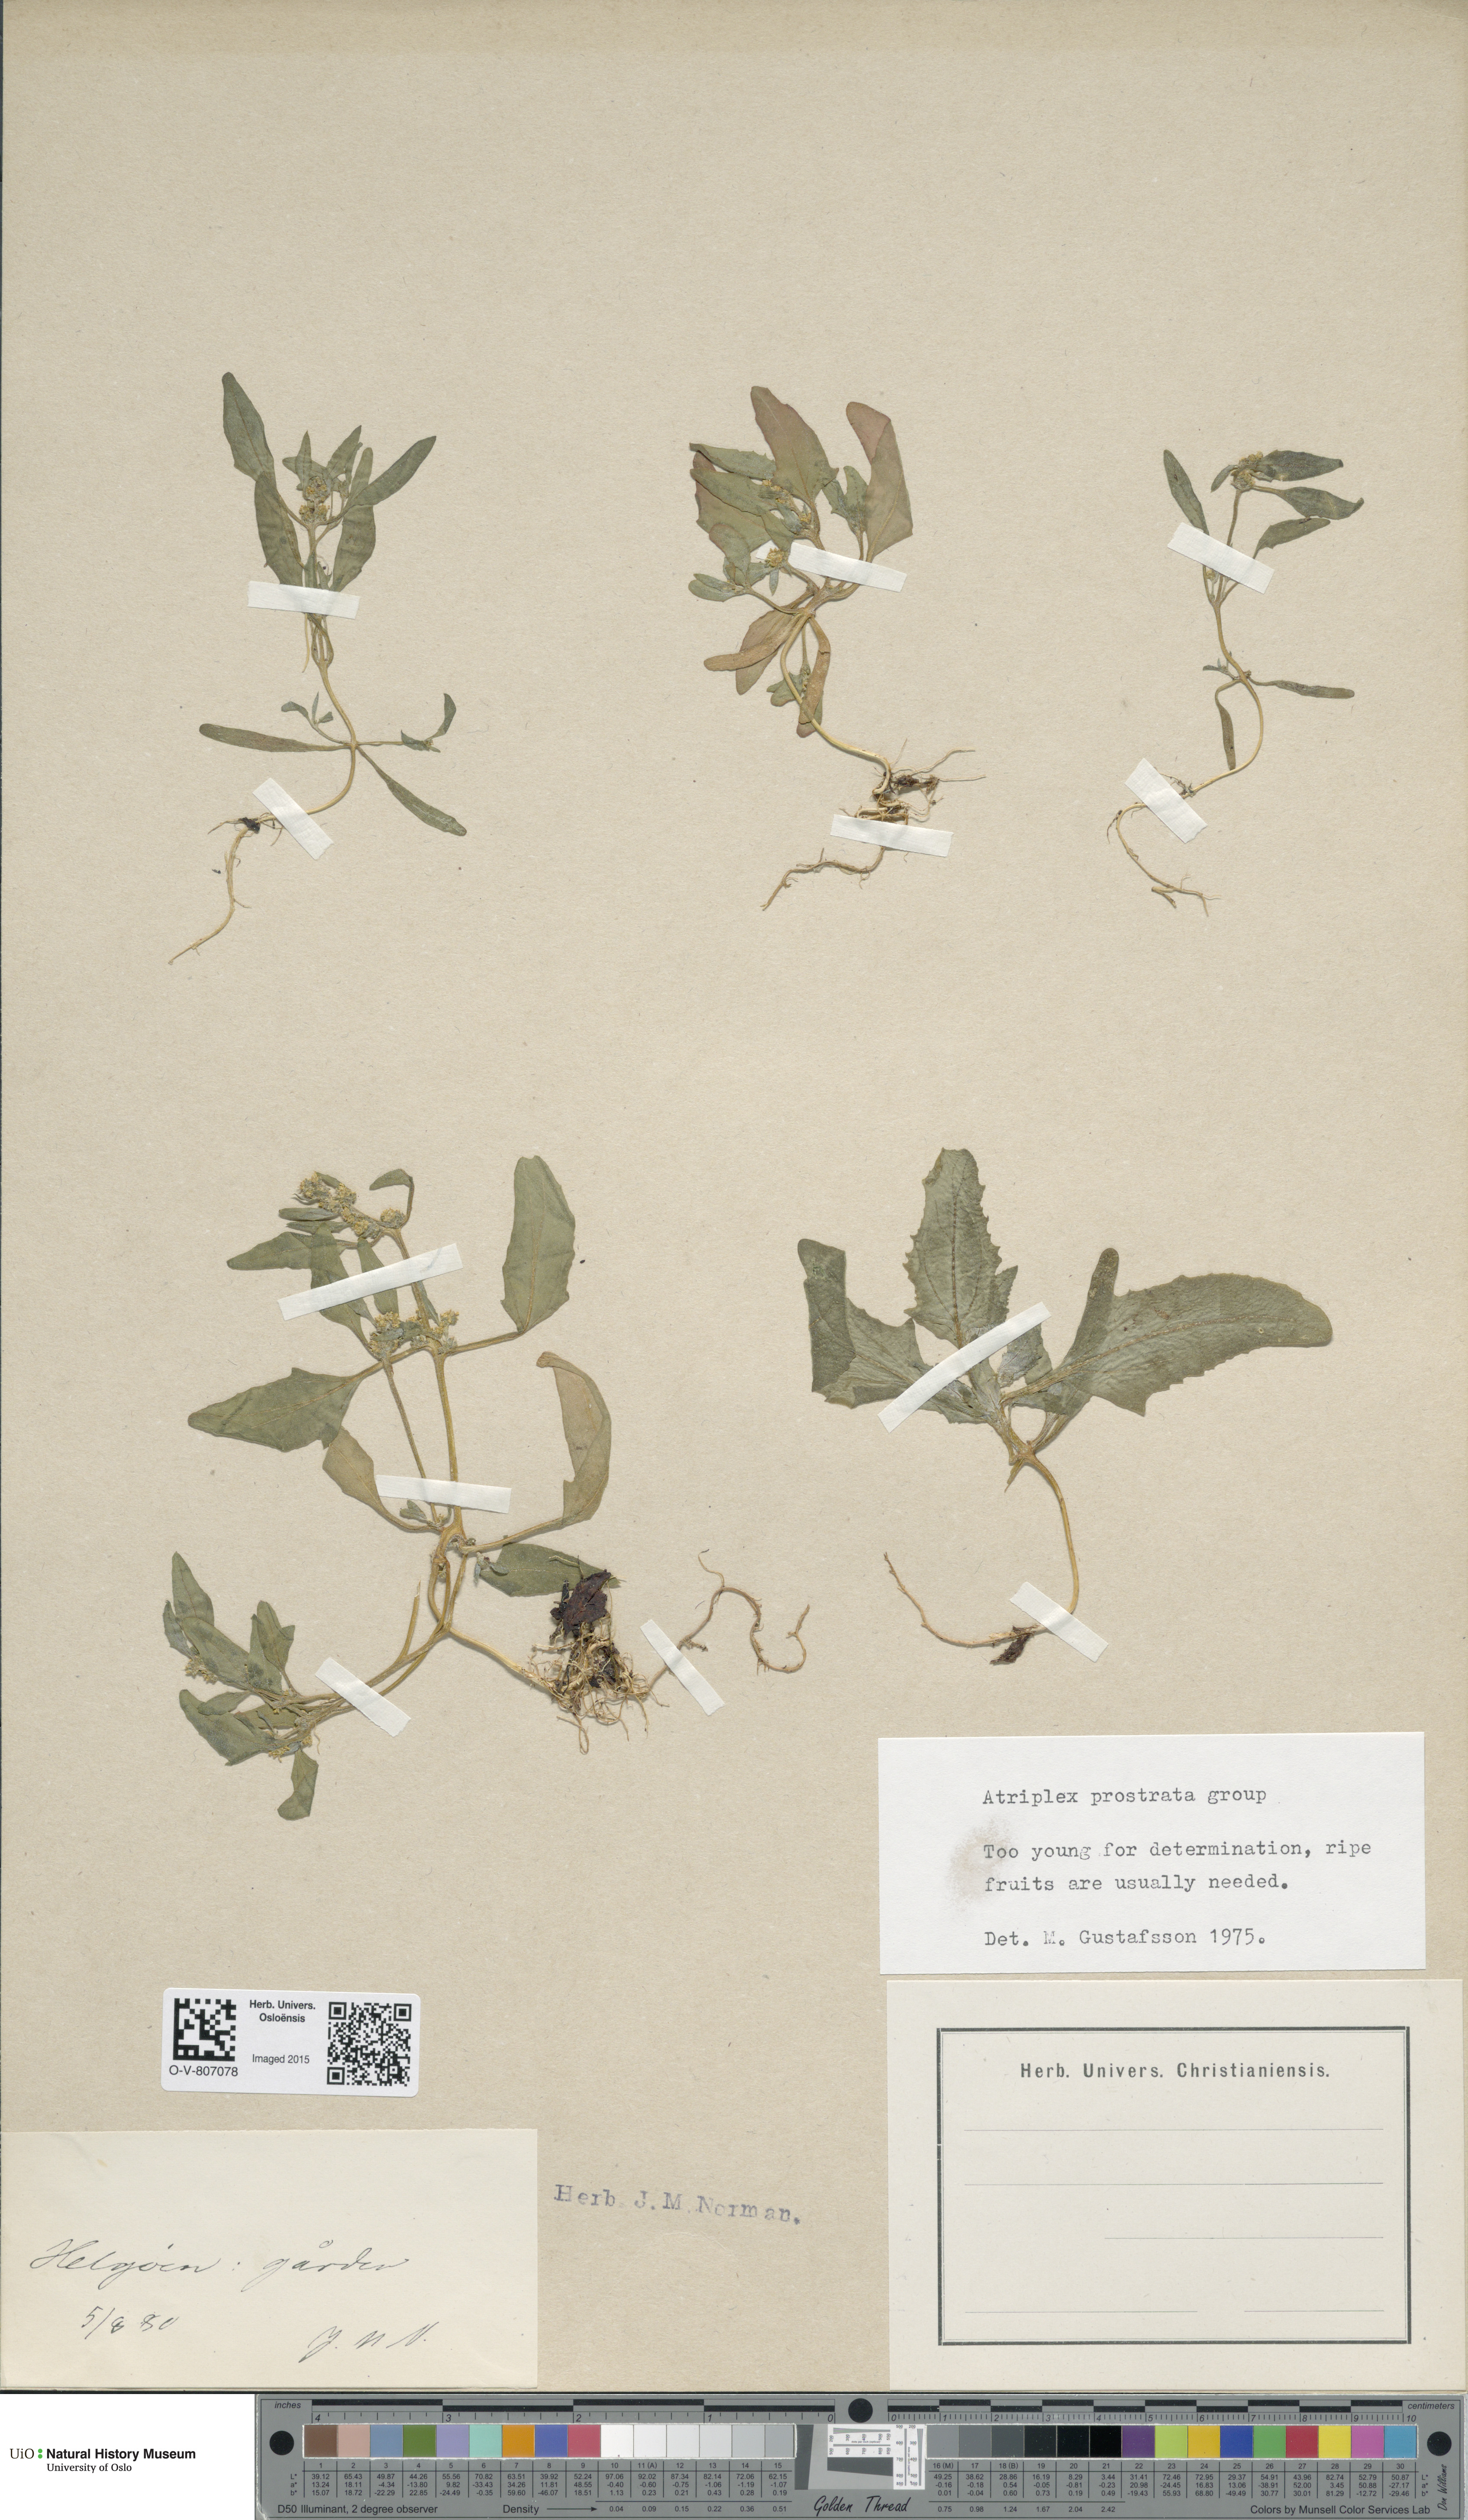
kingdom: Plantae
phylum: Tracheophyta
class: Magnoliopsida
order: Caryophyllales
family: Amaranthaceae
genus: Atriplex
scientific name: Atriplex prostrata
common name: Spear-leaved orache
